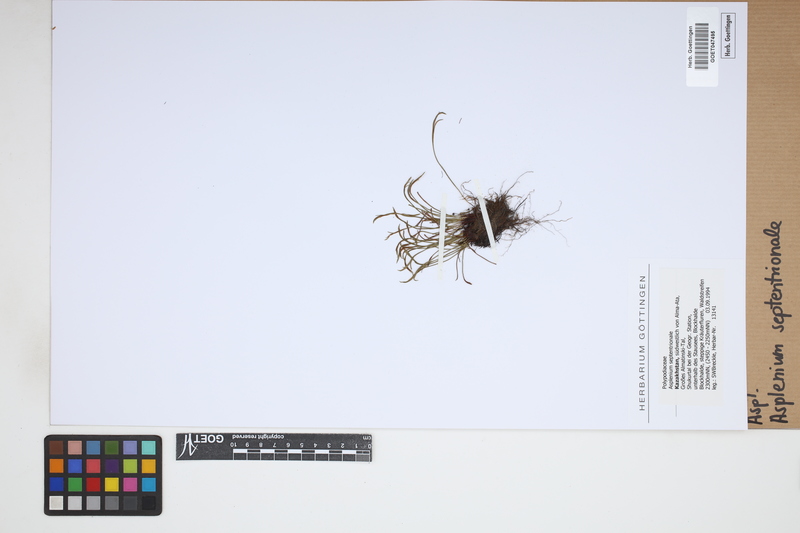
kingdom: Plantae
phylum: Tracheophyta
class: Polypodiopsida
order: Polypodiales
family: Aspleniaceae
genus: Asplenium
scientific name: Asplenium septentrionale
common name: Forked spleenwort
